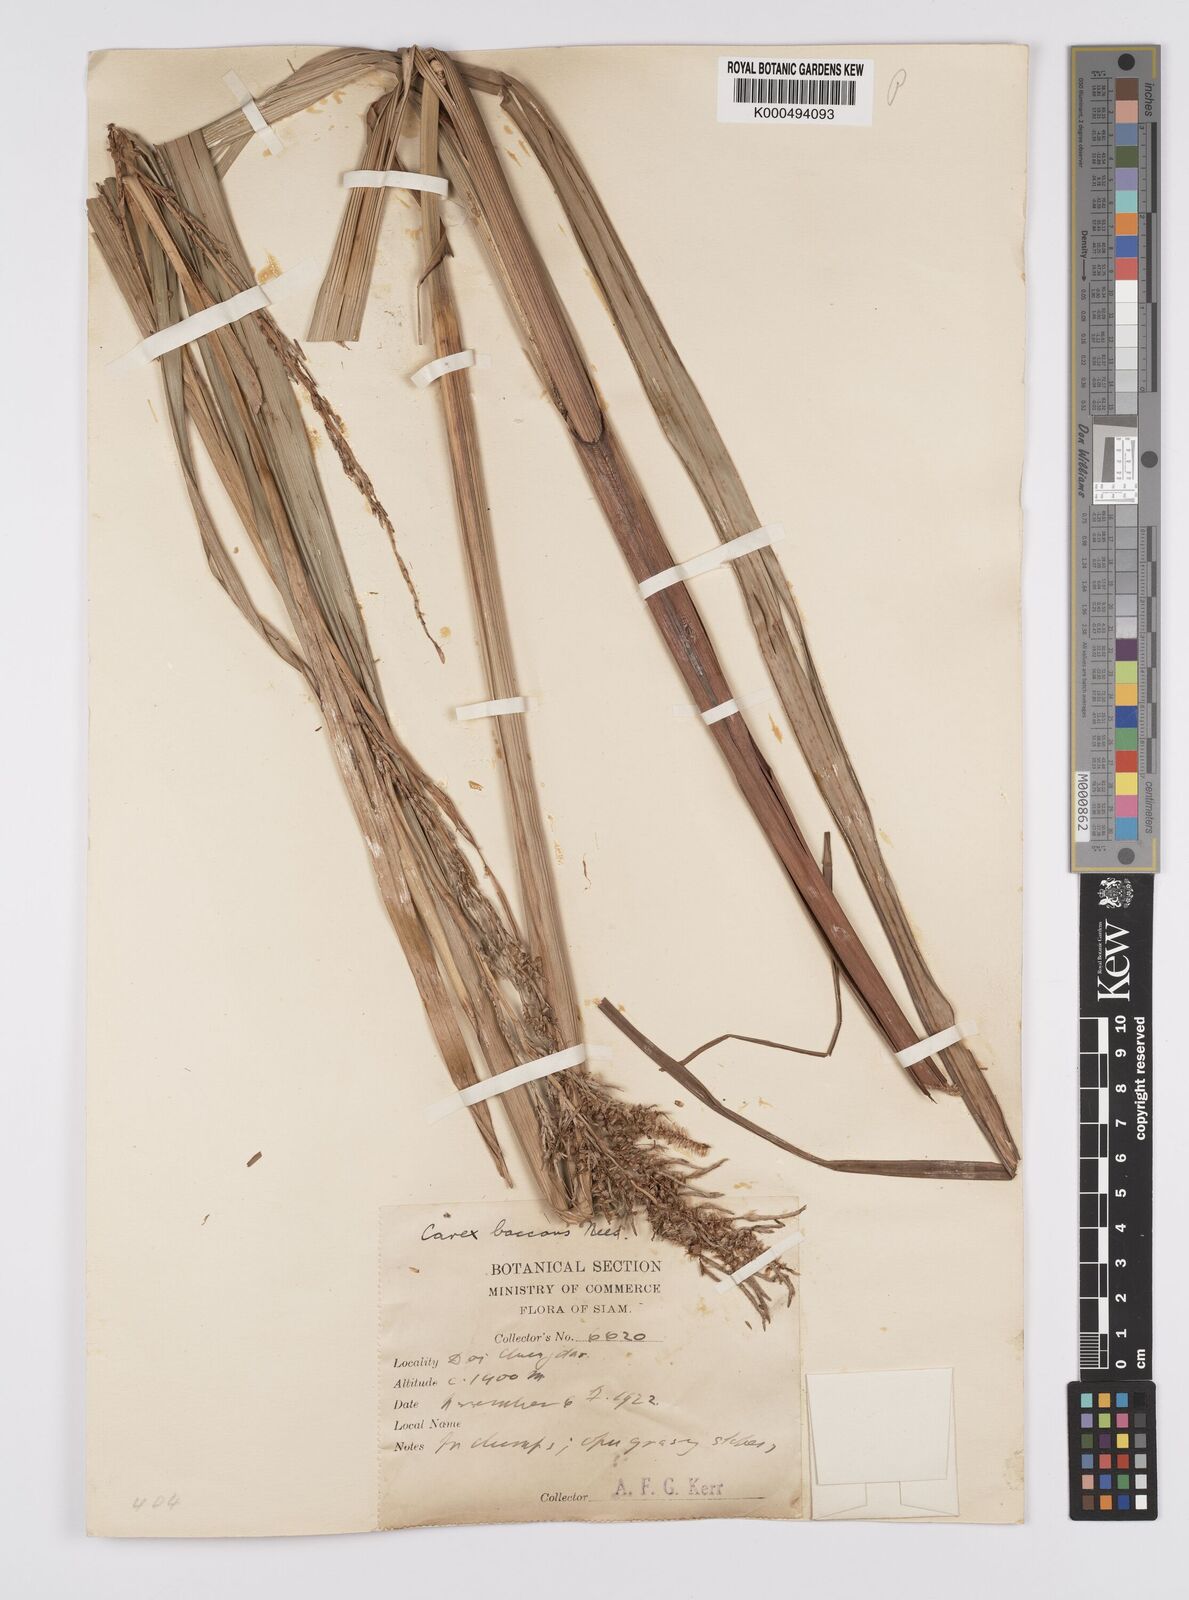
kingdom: Plantae
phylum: Tracheophyta
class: Liliopsida
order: Poales
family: Cyperaceae
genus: Carex
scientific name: Carex baccans
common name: Crimson seeded sedge
